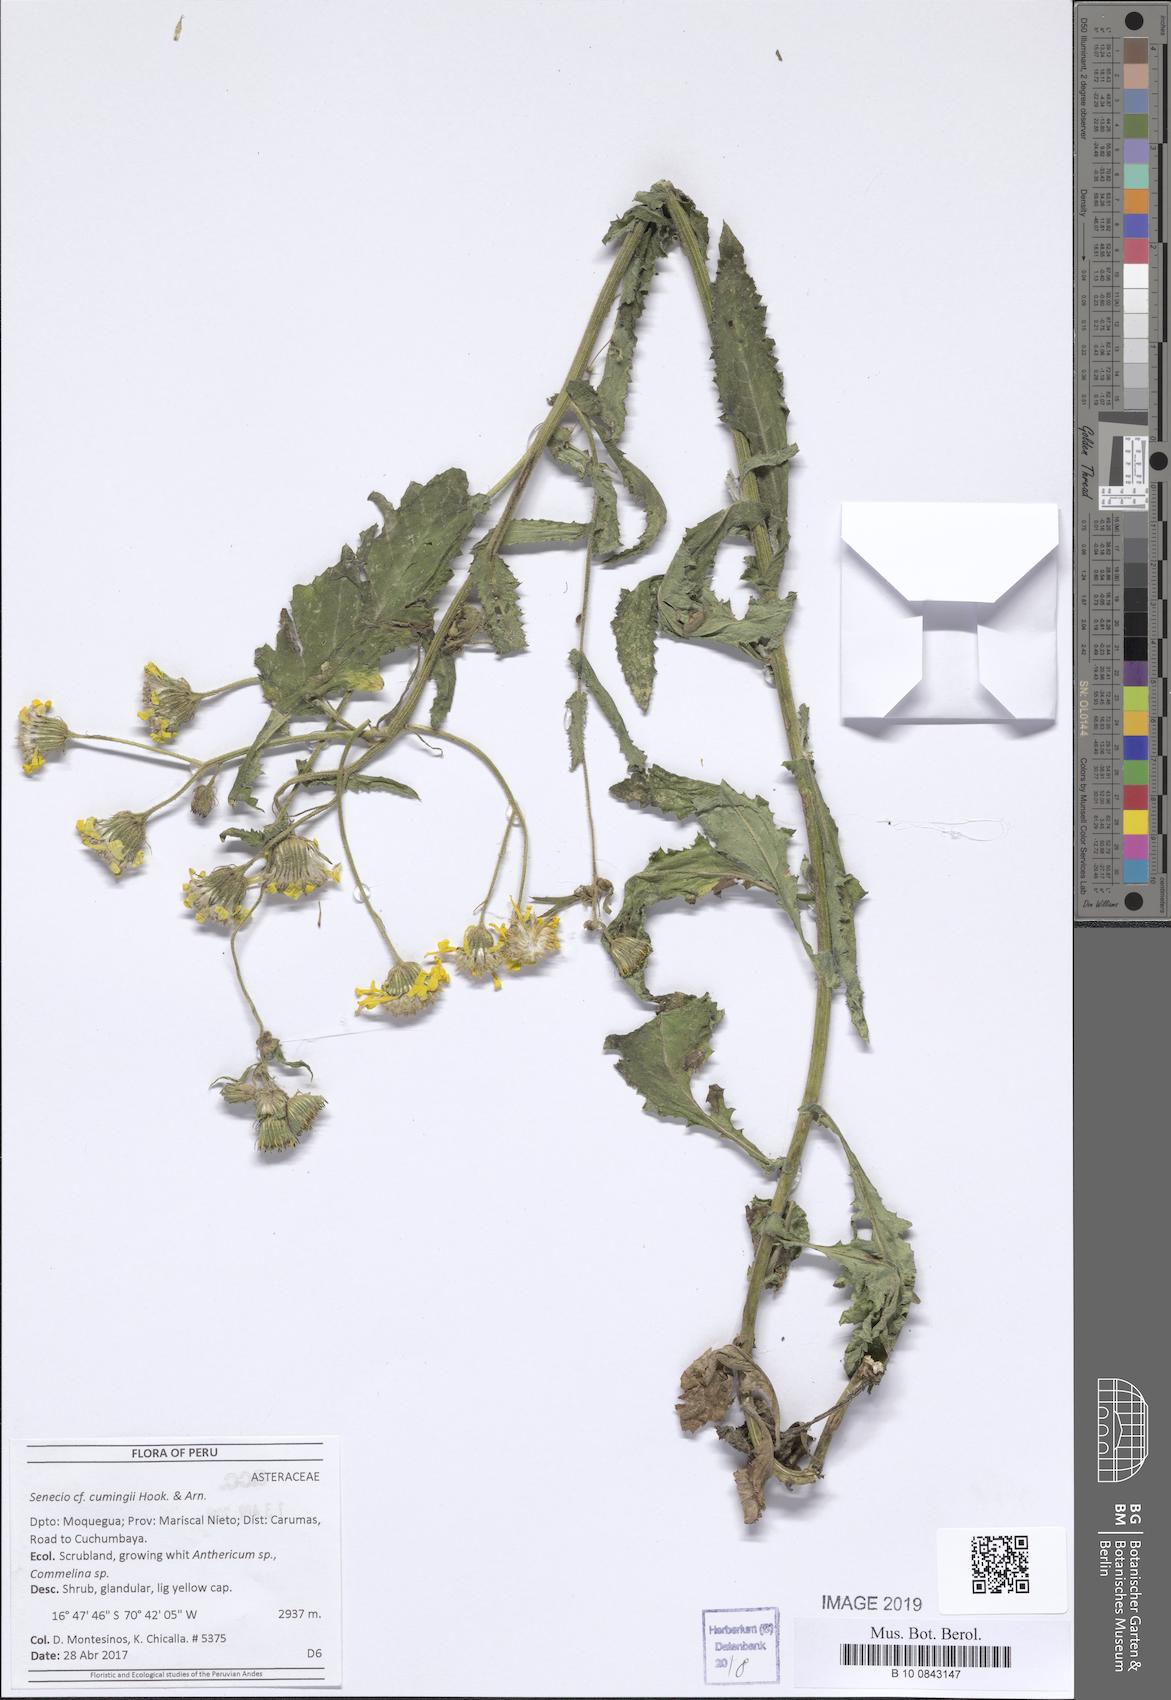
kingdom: Plantae
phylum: Tracheophyta
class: Magnoliopsida
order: Asterales
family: Asteraceae
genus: Senecio
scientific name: Senecio cumingii
